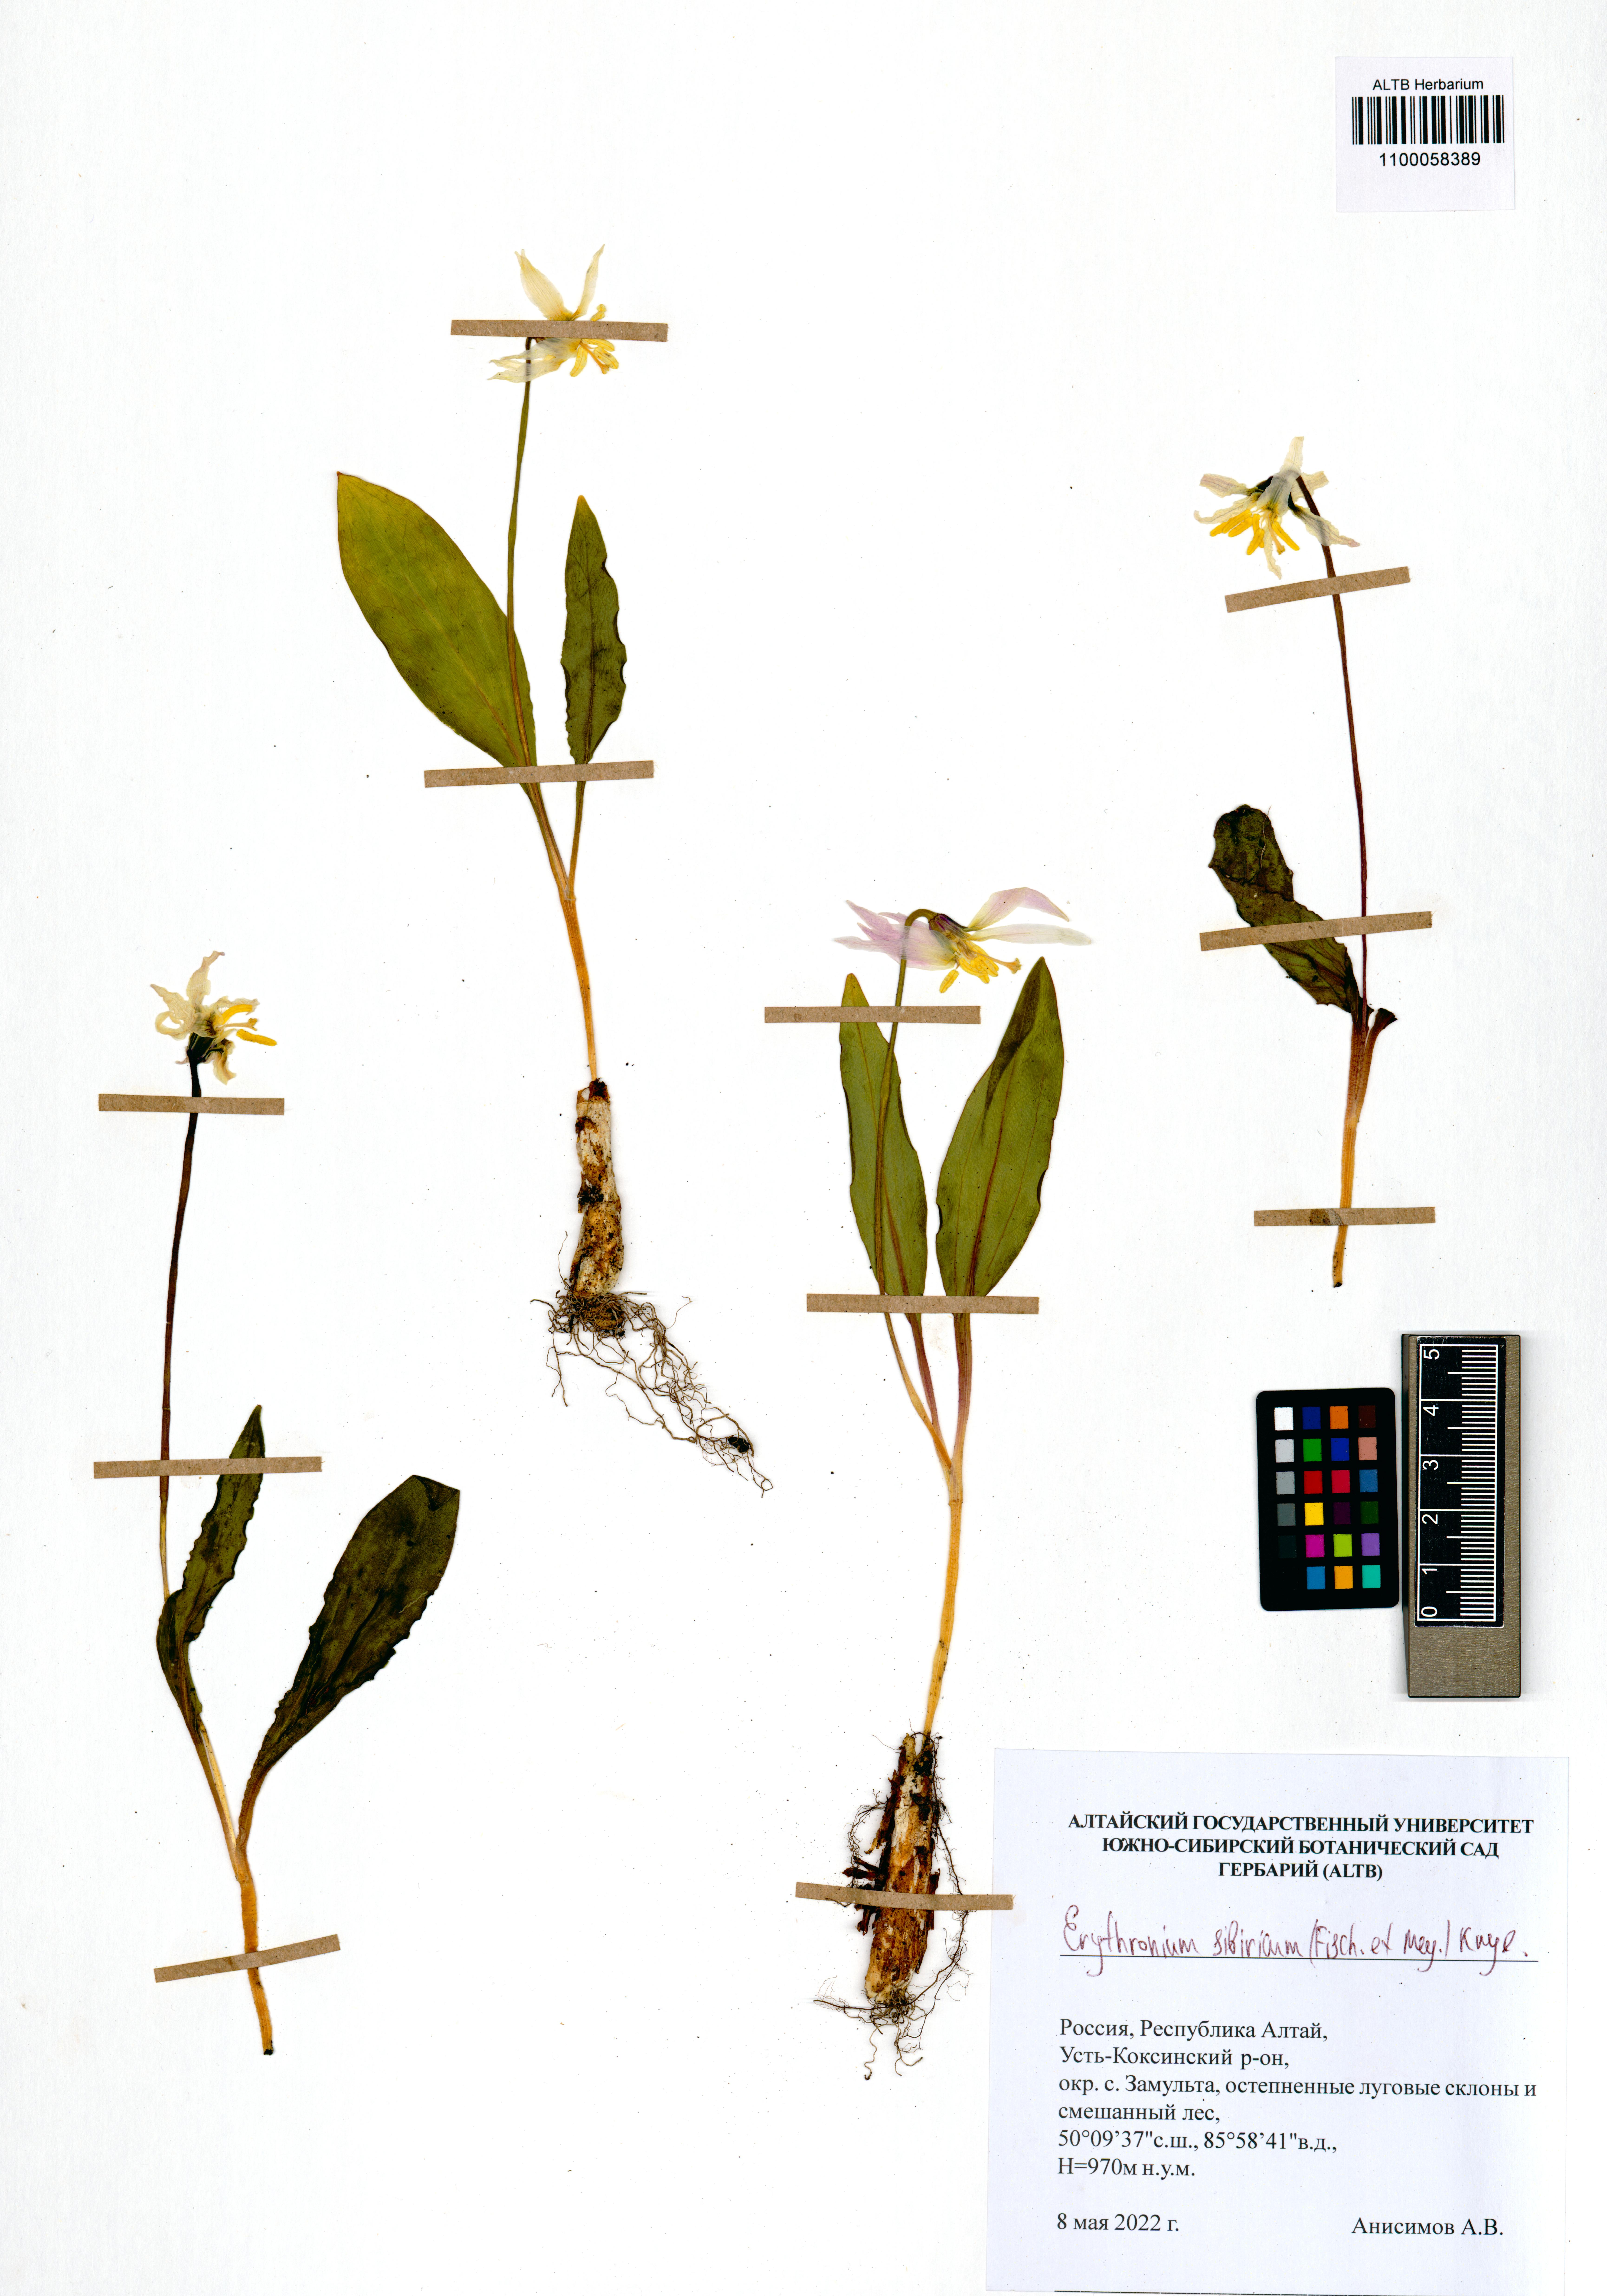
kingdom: Plantae
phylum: Tracheophyta
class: Liliopsida
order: Liliales
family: Liliaceae
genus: Erythronium
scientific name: Erythronium sibiricum
